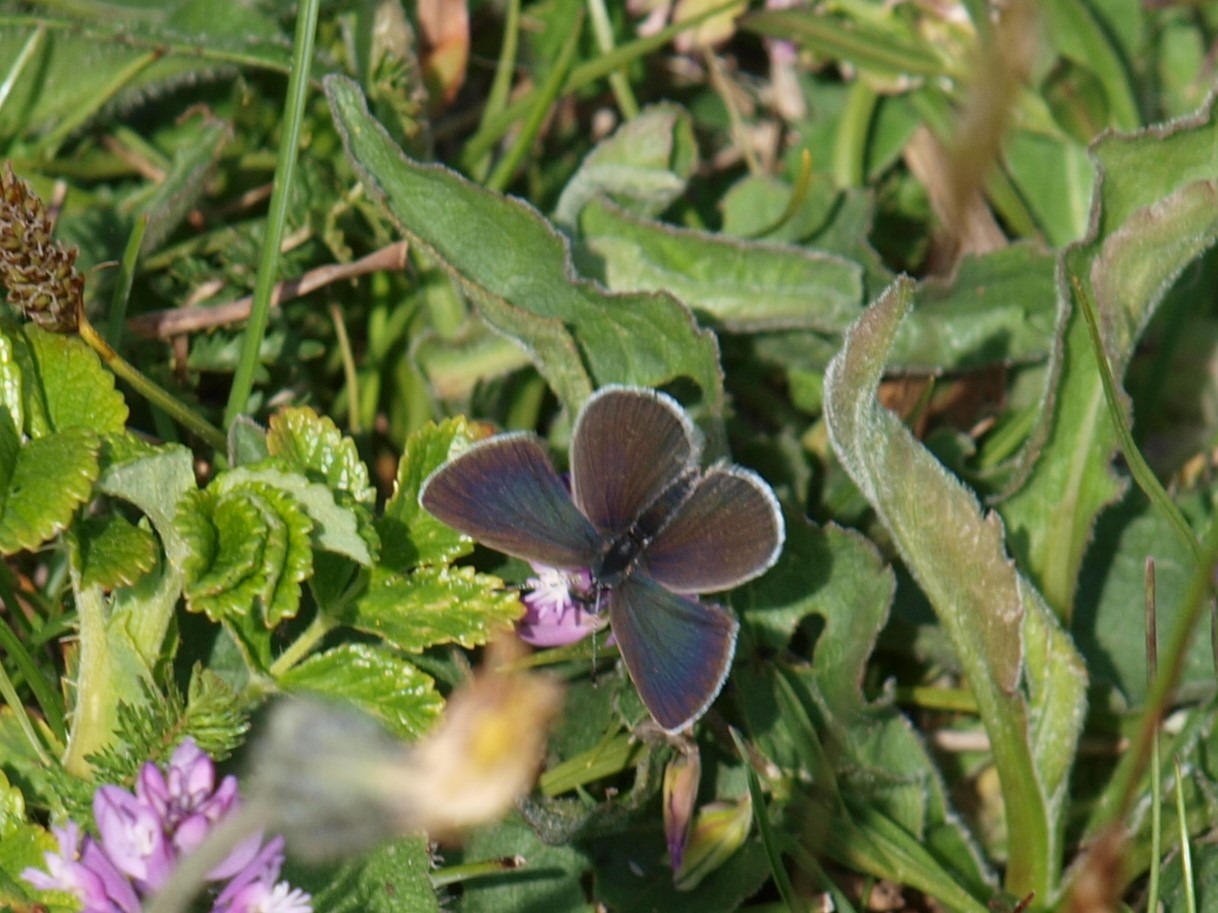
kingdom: Animalia
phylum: Arthropoda
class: Insecta
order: Lepidoptera
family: Lycaenidae
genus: Cupido
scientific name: Cupido minimus
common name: Dværgblåfugl
